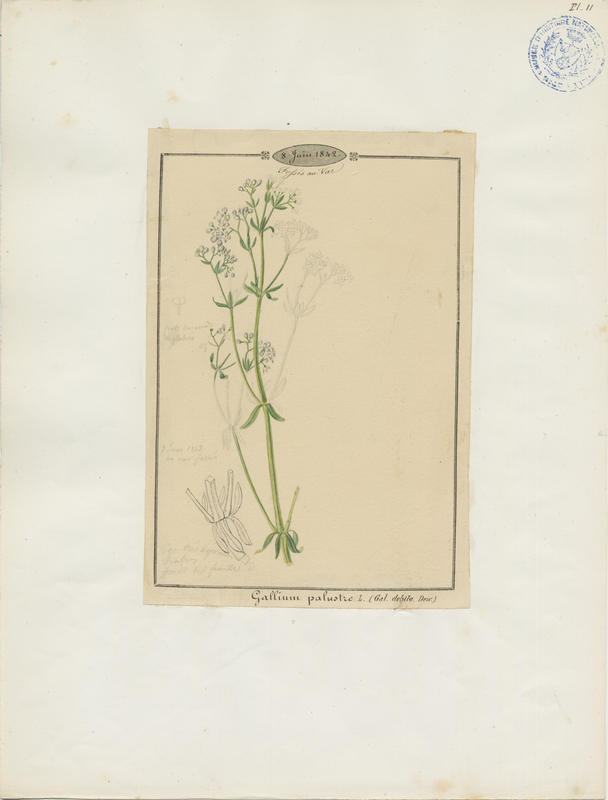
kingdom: Plantae
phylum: Tracheophyta
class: Magnoliopsida
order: Gentianales
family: Rubiaceae
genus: Galium
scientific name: Galium palustre
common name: Common marsh-bedstraw
